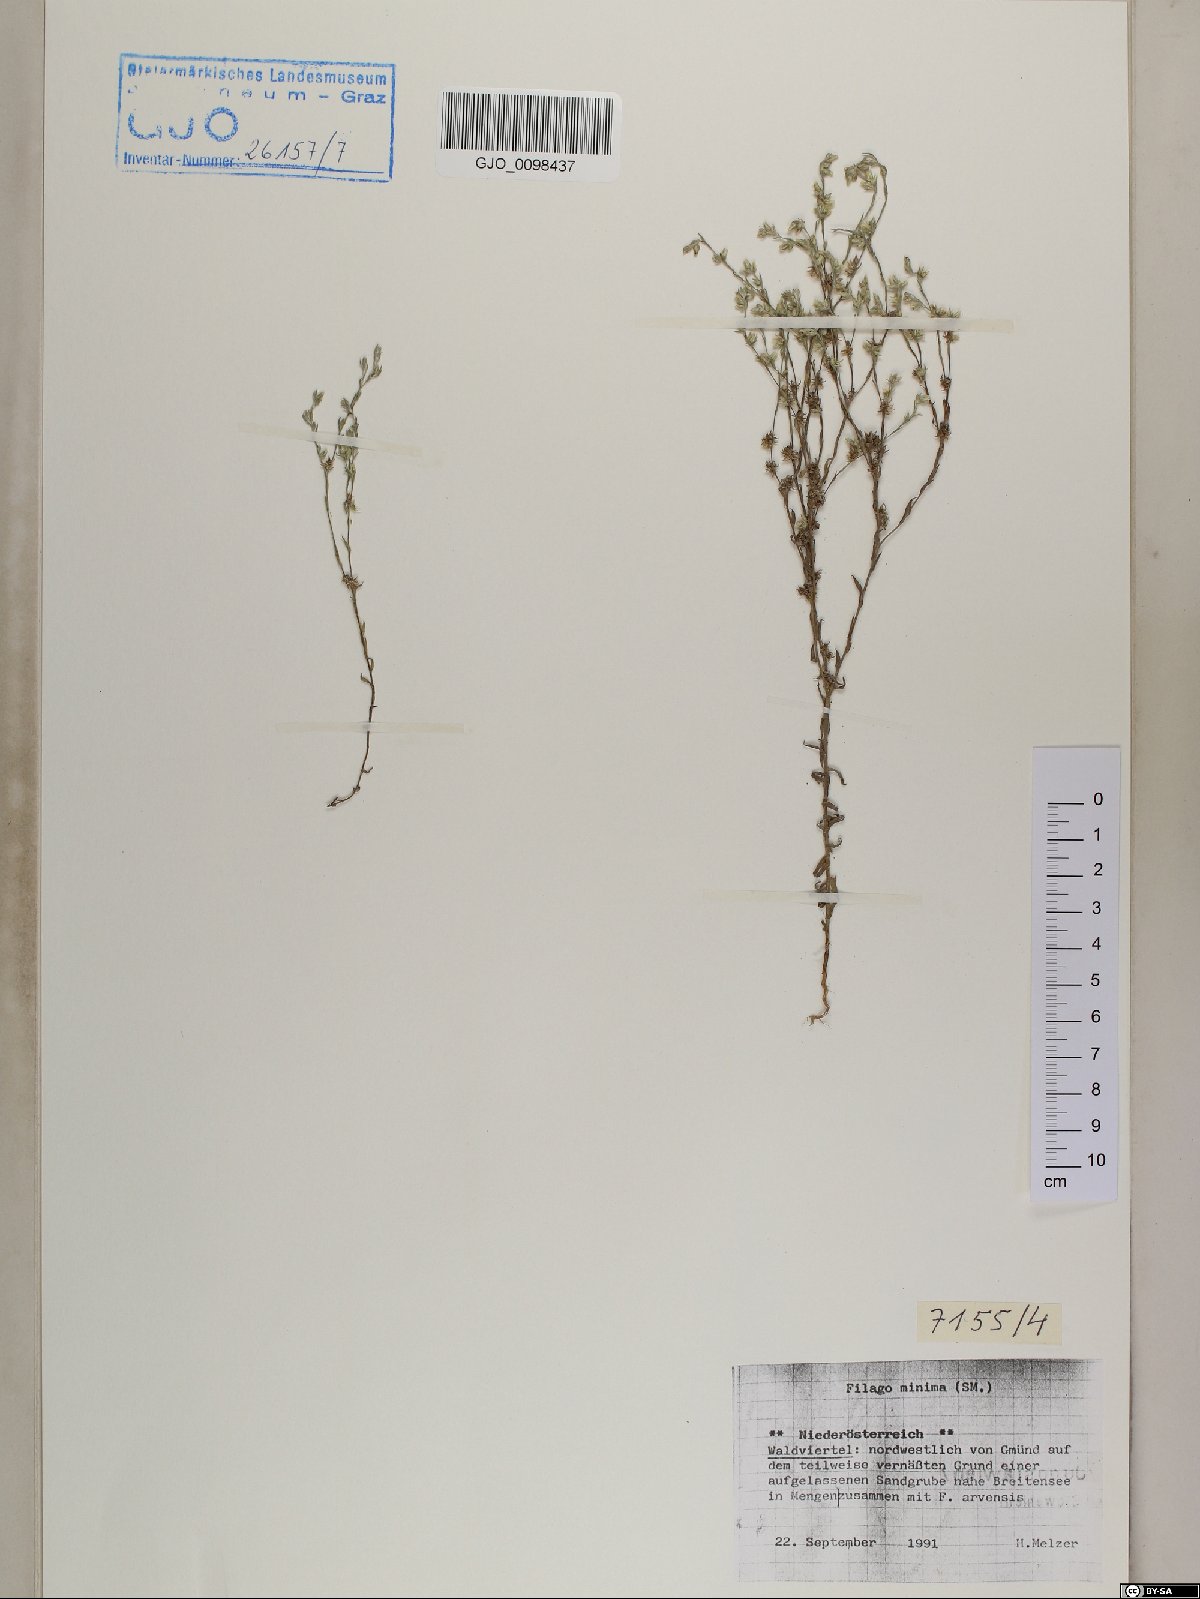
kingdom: Plantae
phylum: Tracheophyta
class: Magnoliopsida
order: Asterales
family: Asteraceae
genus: Logfia
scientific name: Logfia minima
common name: Little cottonrose
